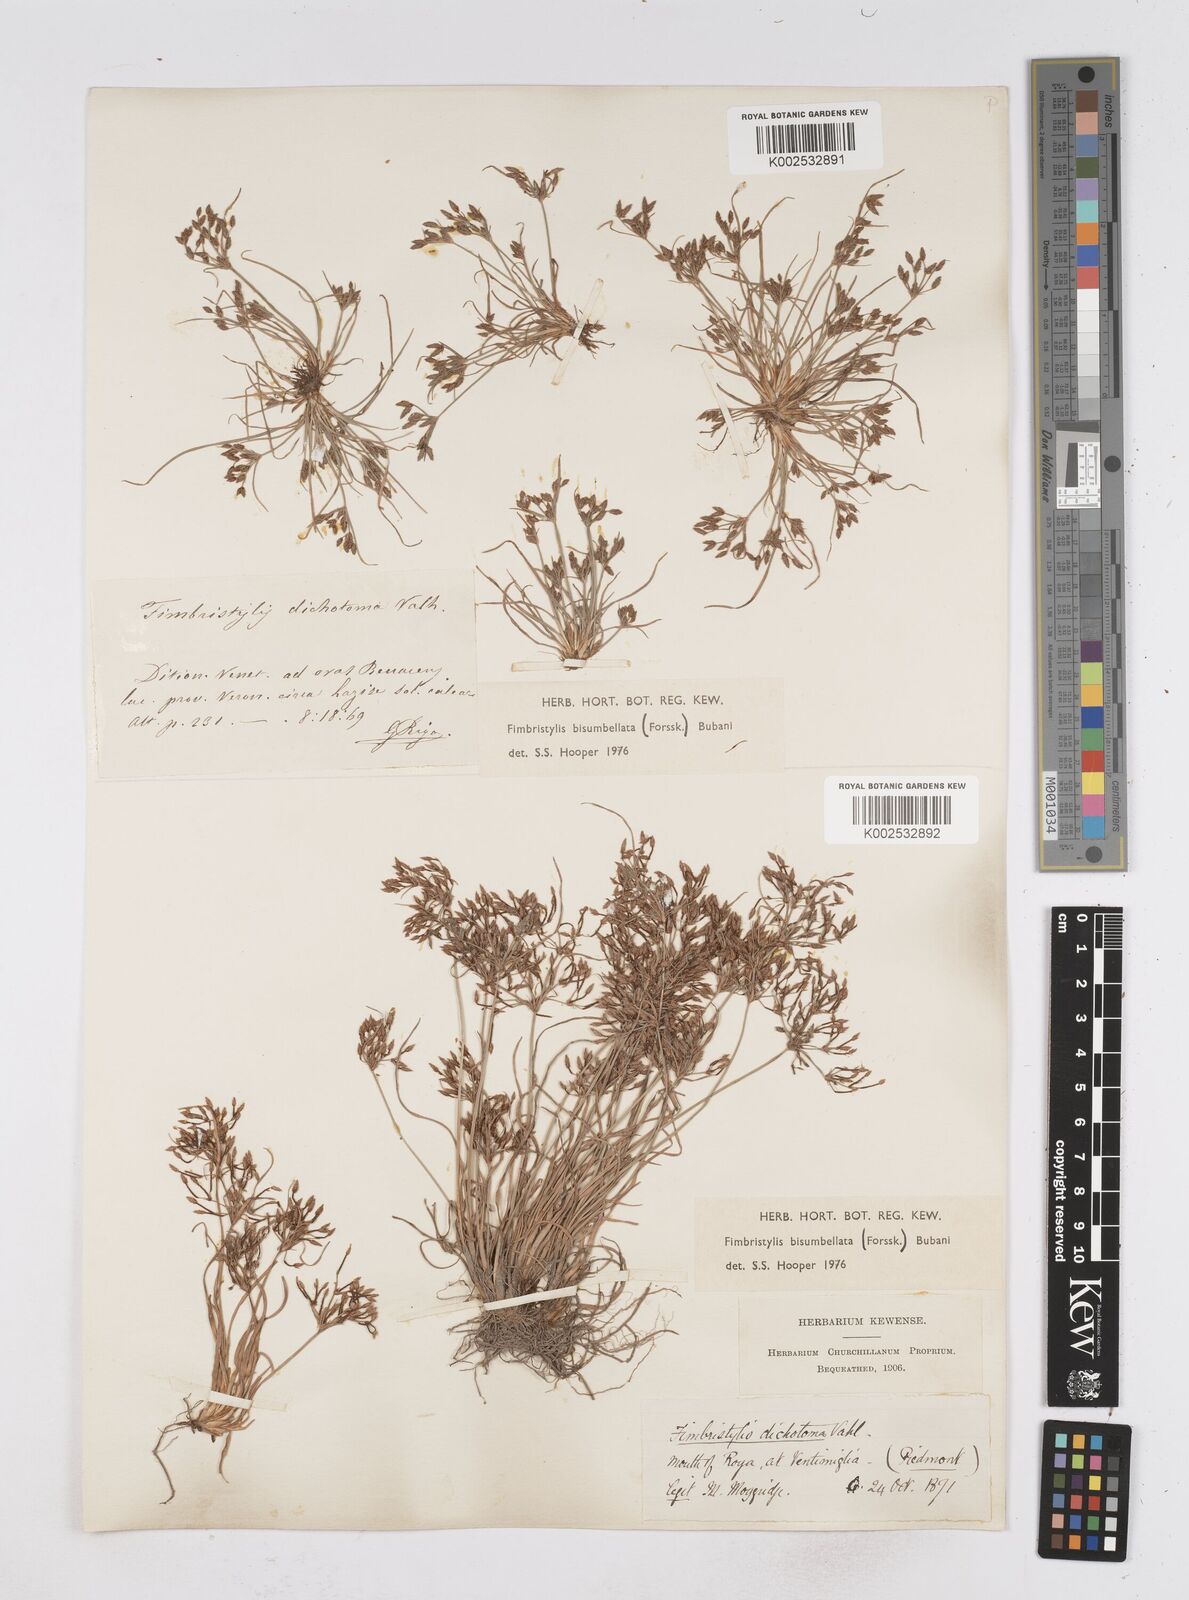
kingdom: Plantae
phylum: Tracheophyta
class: Liliopsida
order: Poales
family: Cyperaceae
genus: Fimbristylis
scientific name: Fimbristylis bisumbellata
